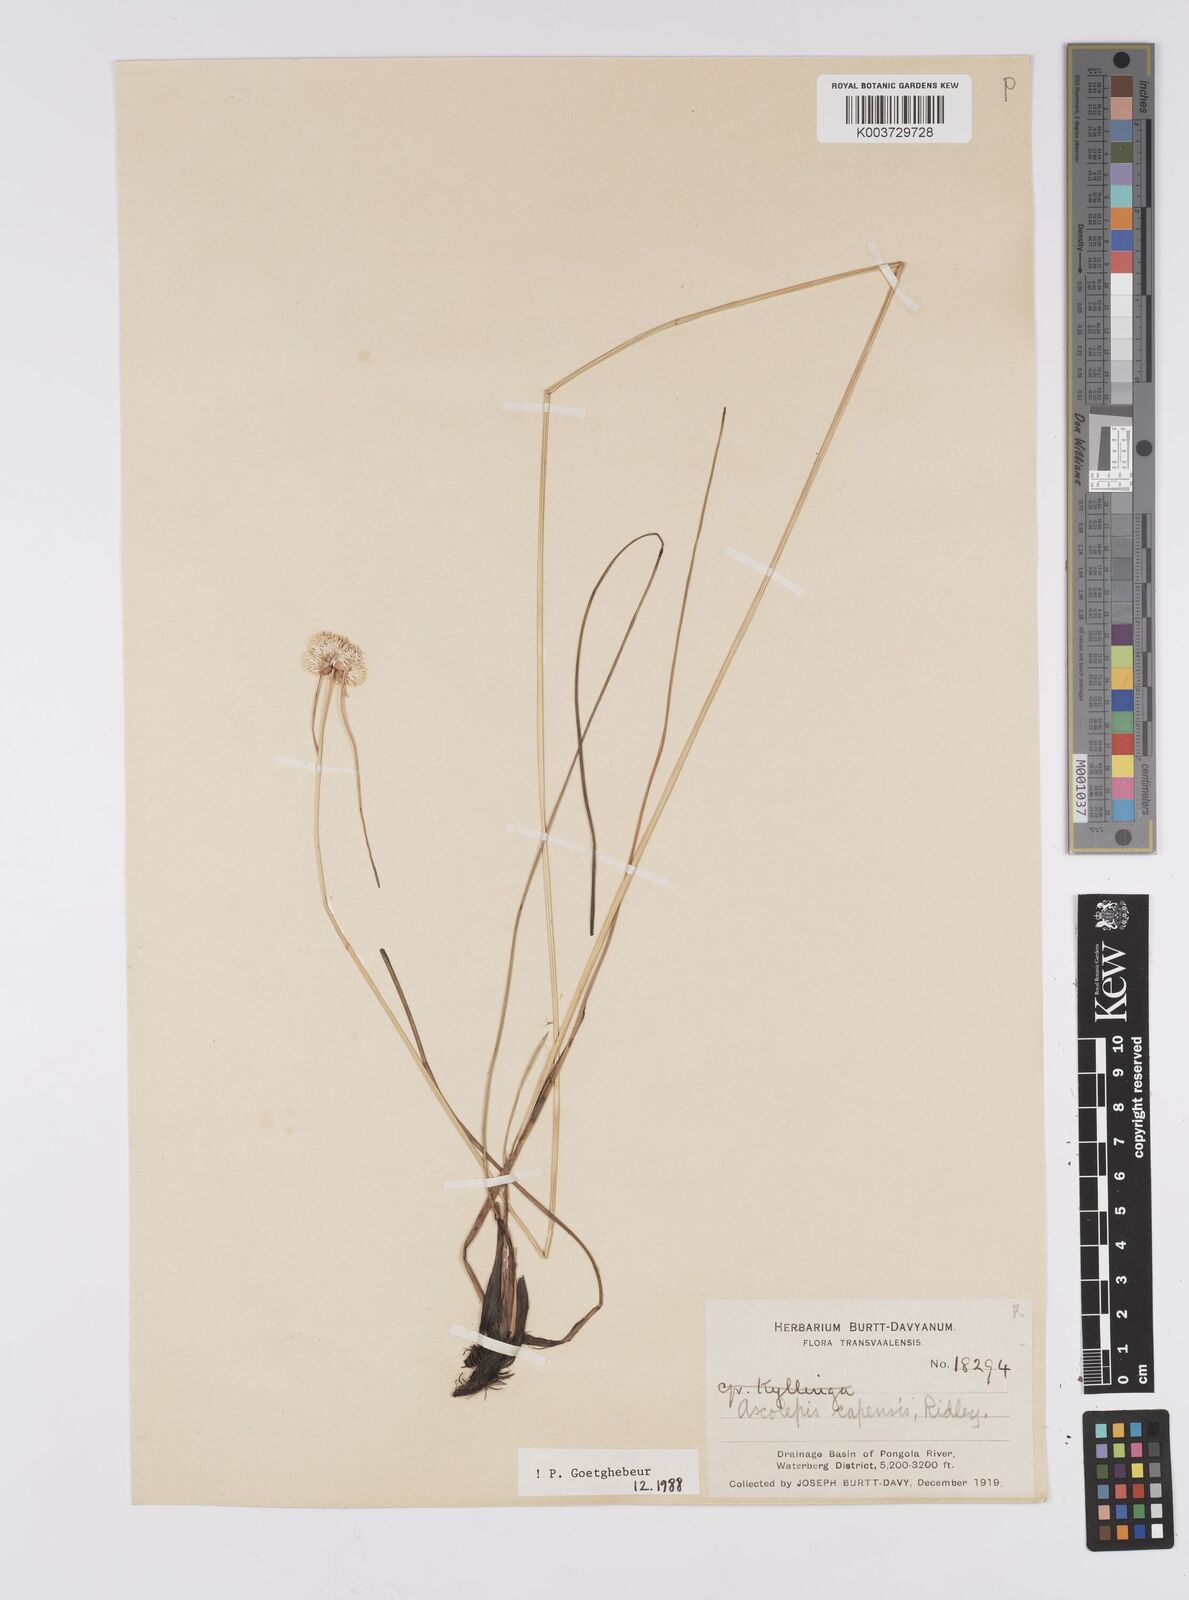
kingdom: Plantae
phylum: Tracheophyta
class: Liliopsida
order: Poales
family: Cyperaceae
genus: Cyperus
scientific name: Cyperus capensis
